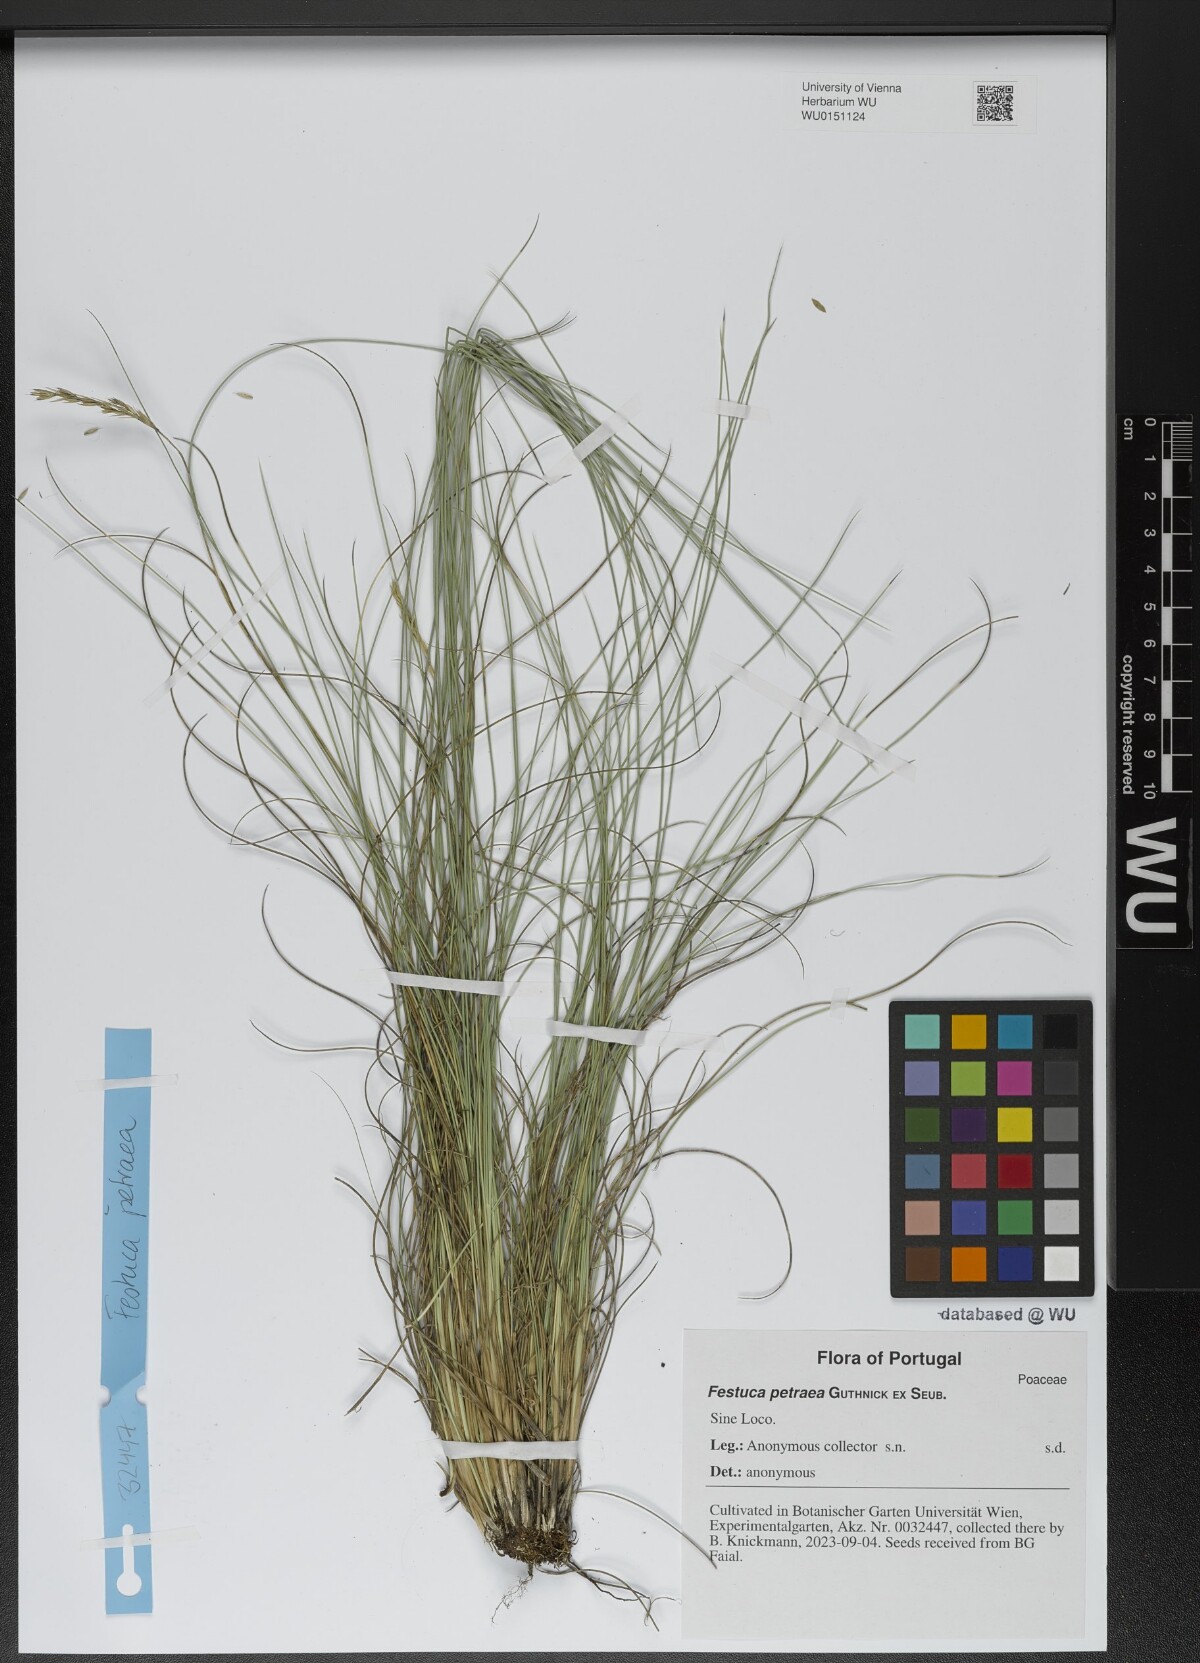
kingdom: Plantae
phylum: Tracheophyta
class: Liliopsida
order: Poales
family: Poaceae
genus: Festuca
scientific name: Festuca petraea
